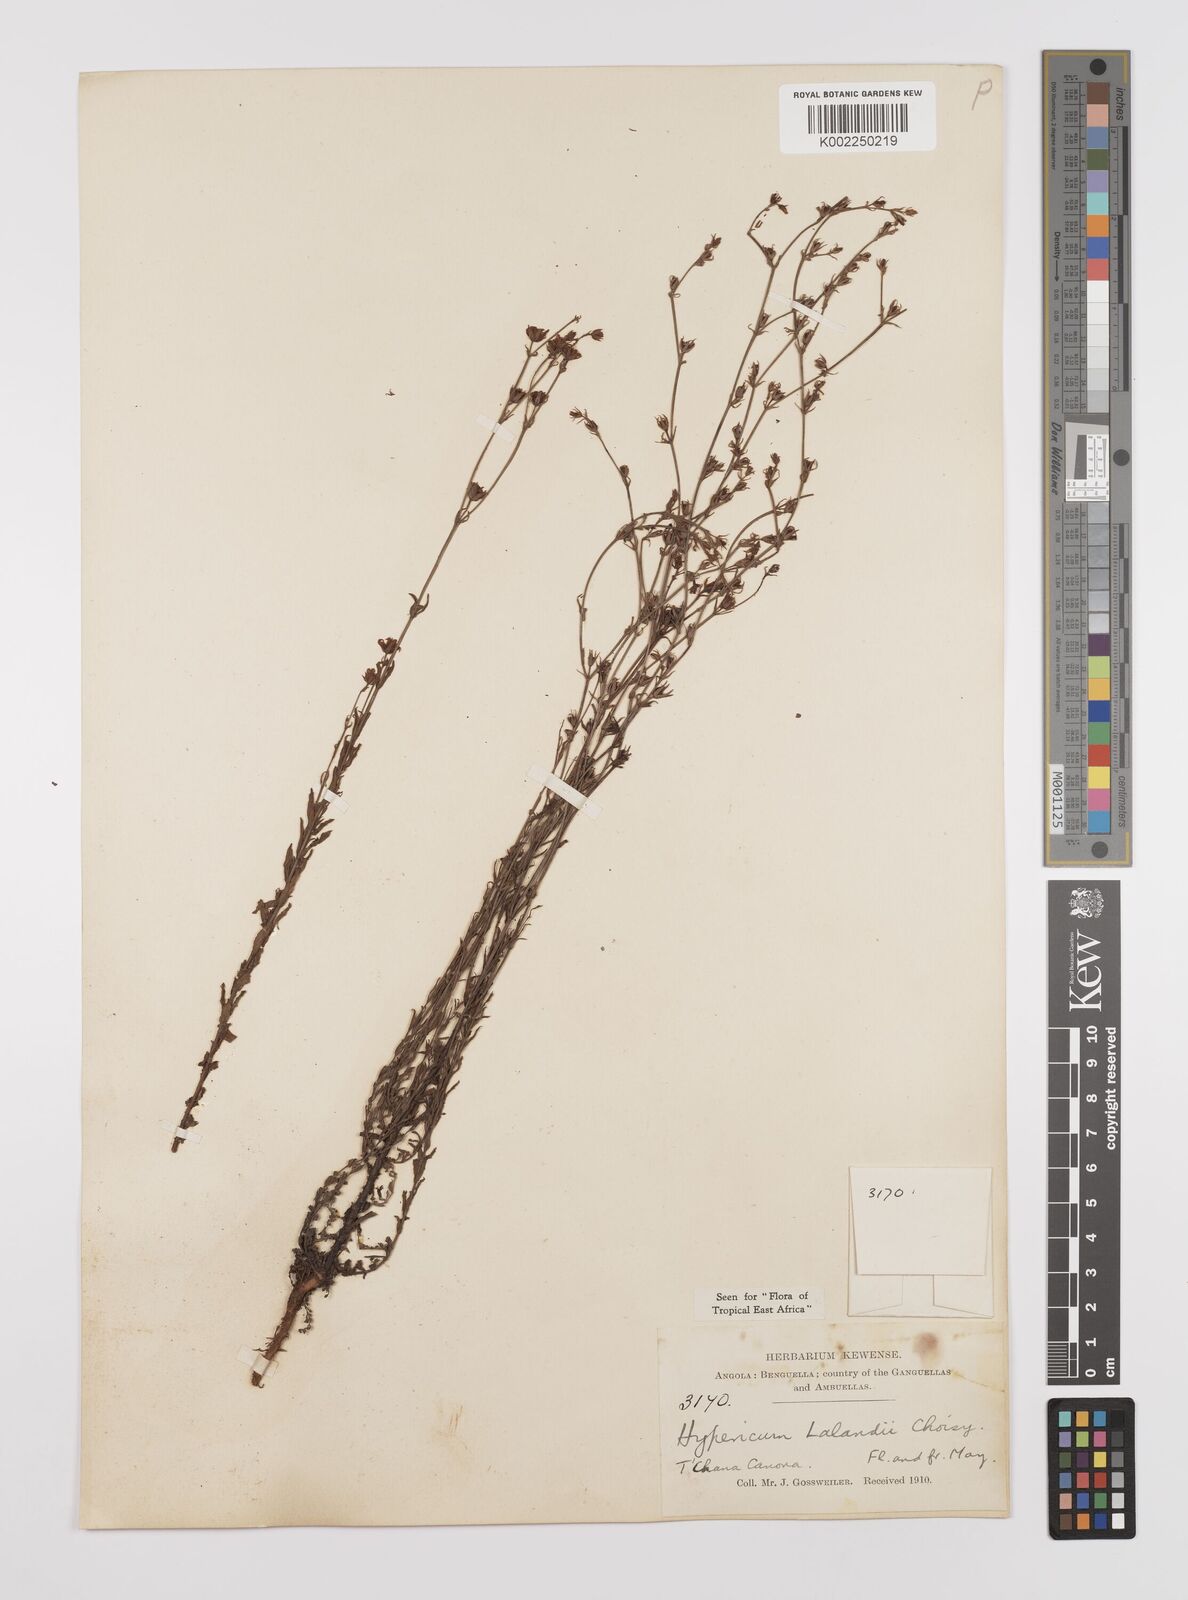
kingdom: Plantae
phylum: Tracheophyta
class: Magnoliopsida
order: Malpighiales
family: Hypericaceae
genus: Hypericum
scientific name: Hypericum lalandii
